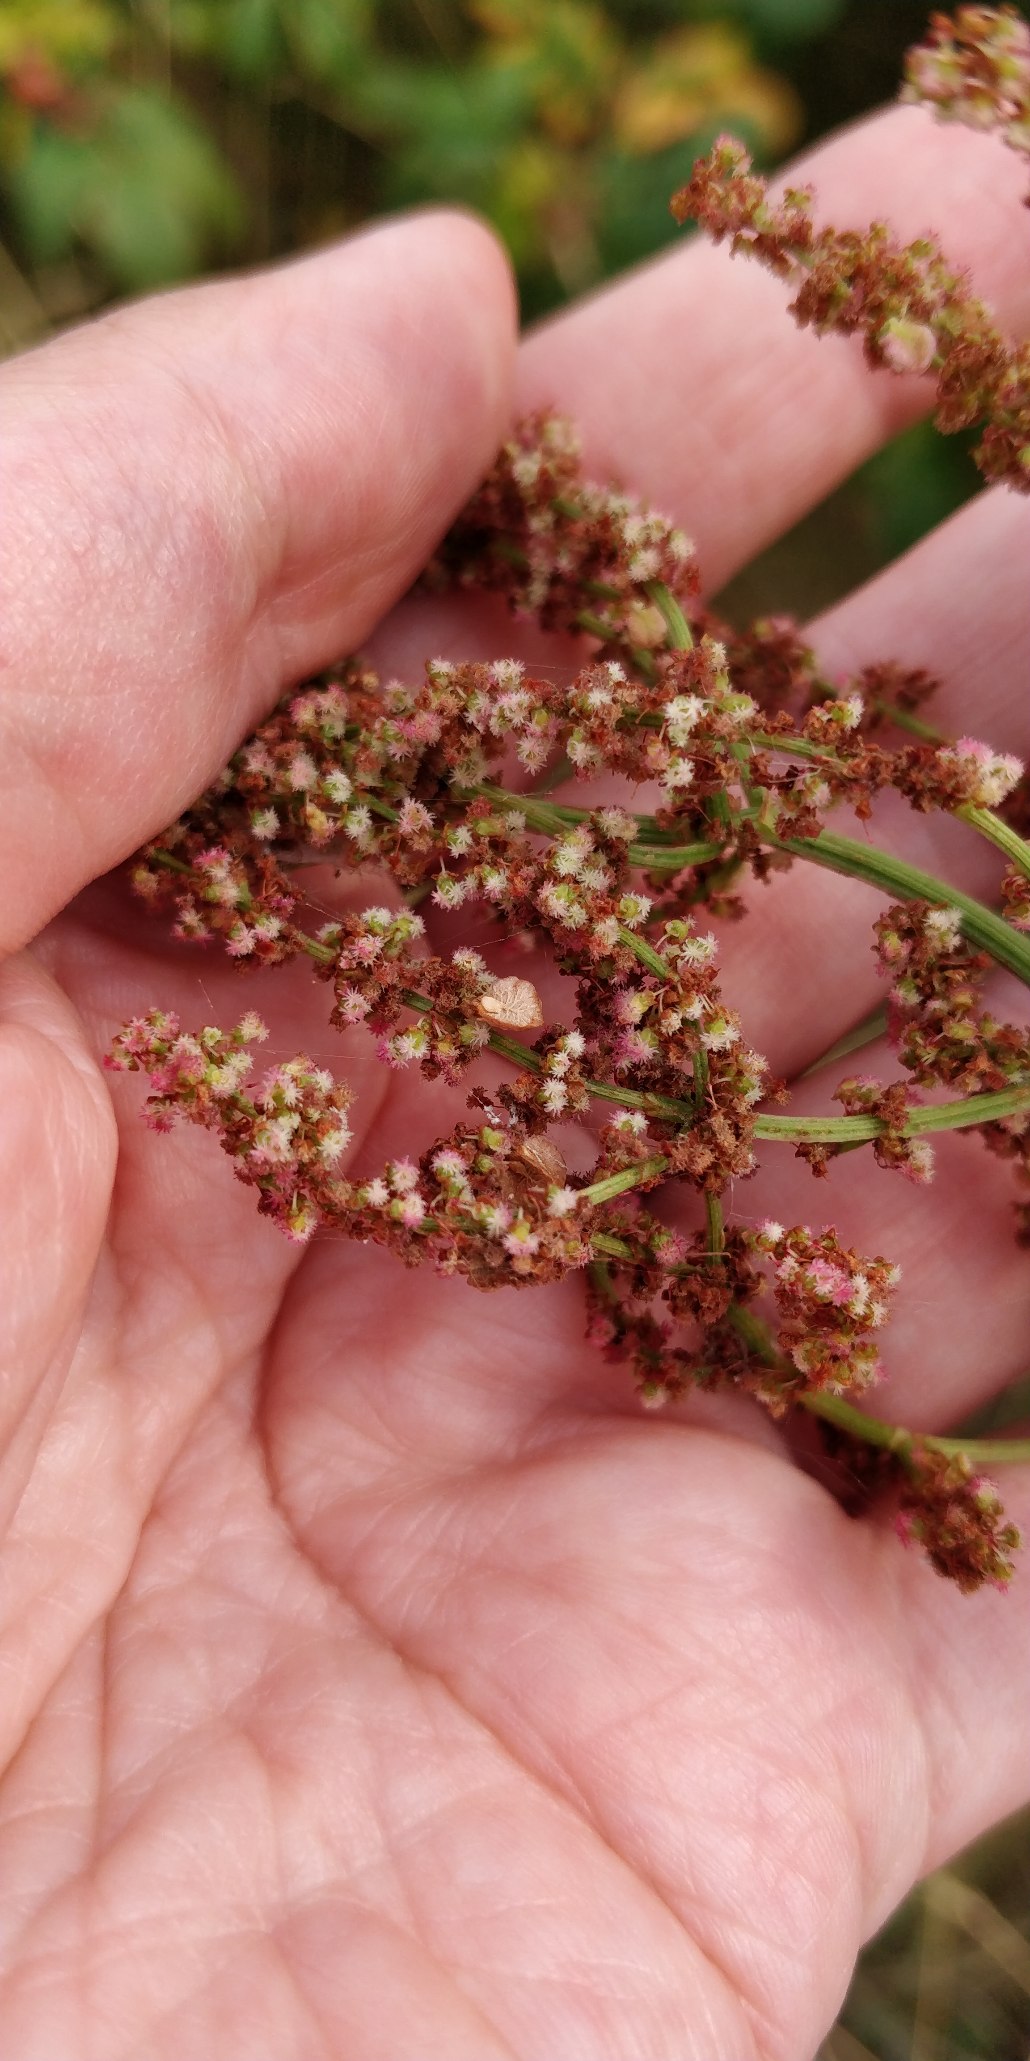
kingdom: Plantae
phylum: Tracheophyta
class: Magnoliopsida
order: Caryophyllales
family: Polygonaceae
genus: Rumex
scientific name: Rumex thyrsiflorus
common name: Dusk-syre
